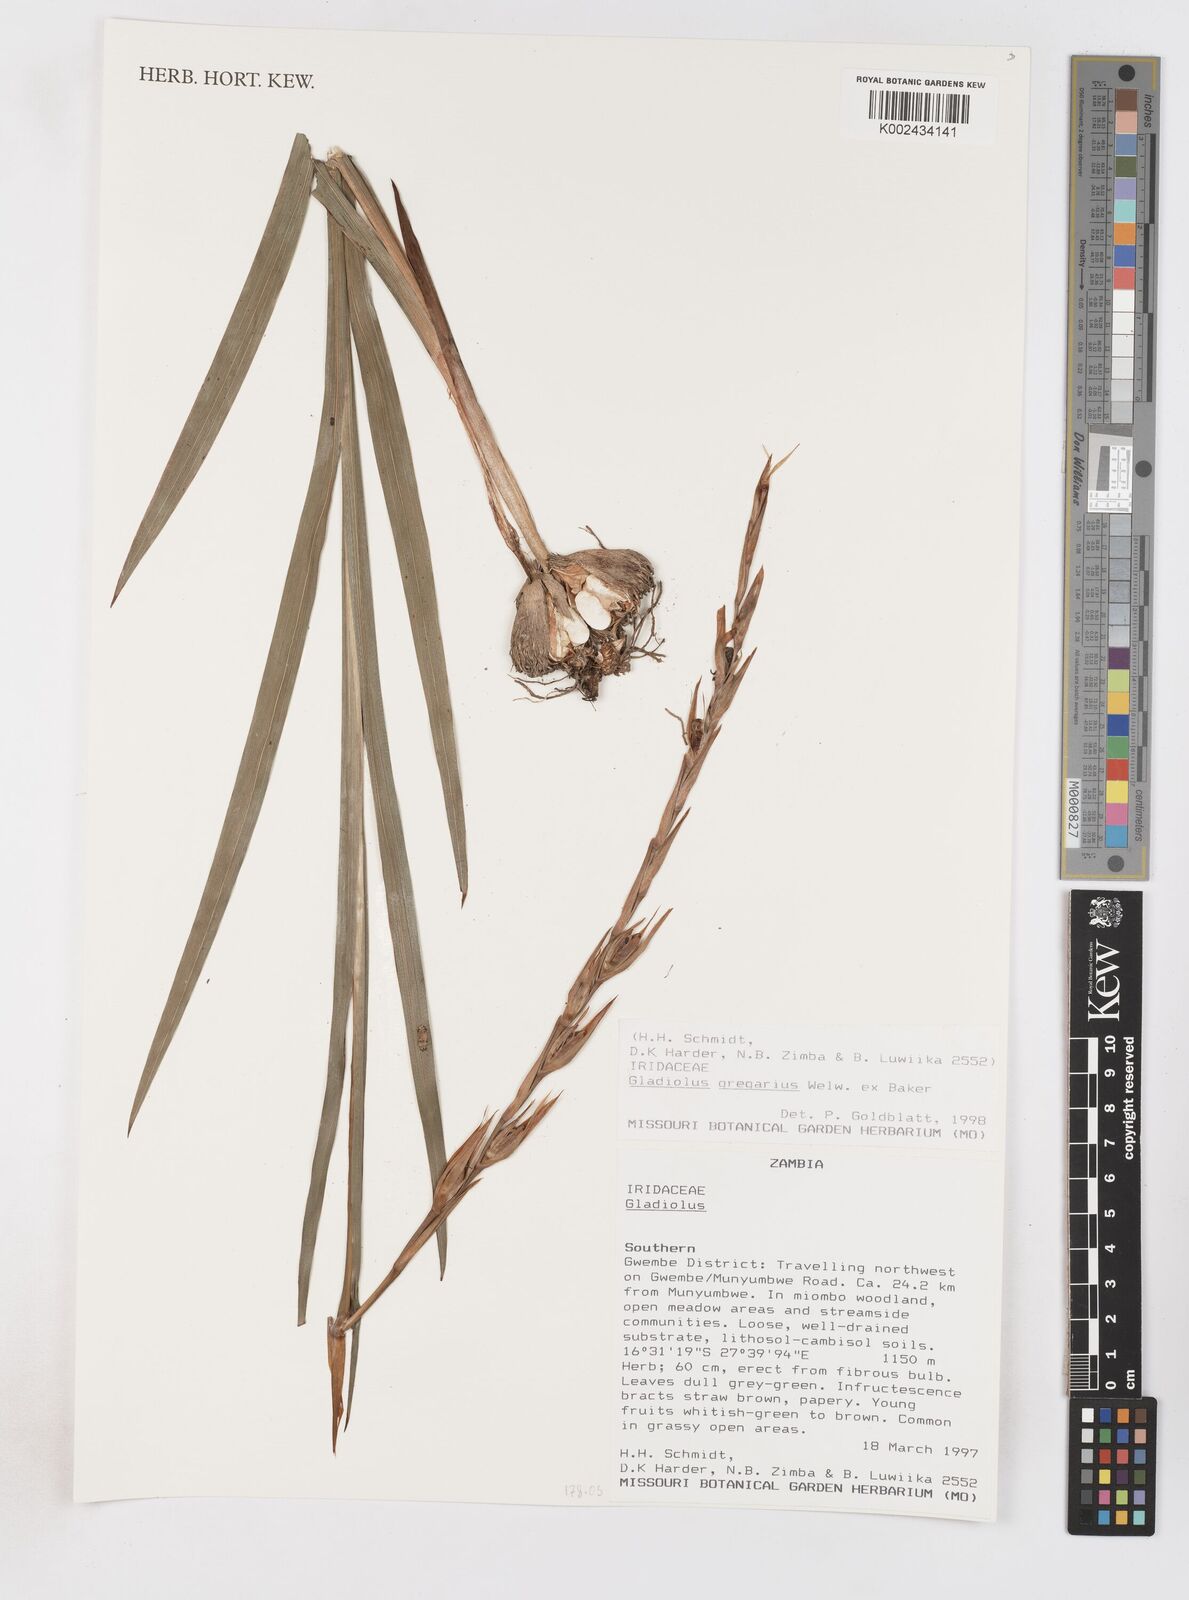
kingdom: Plantae
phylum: Tracheophyta
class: Liliopsida
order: Asparagales
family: Iridaceae
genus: Gladiolus
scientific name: Gladiolus gregarius
